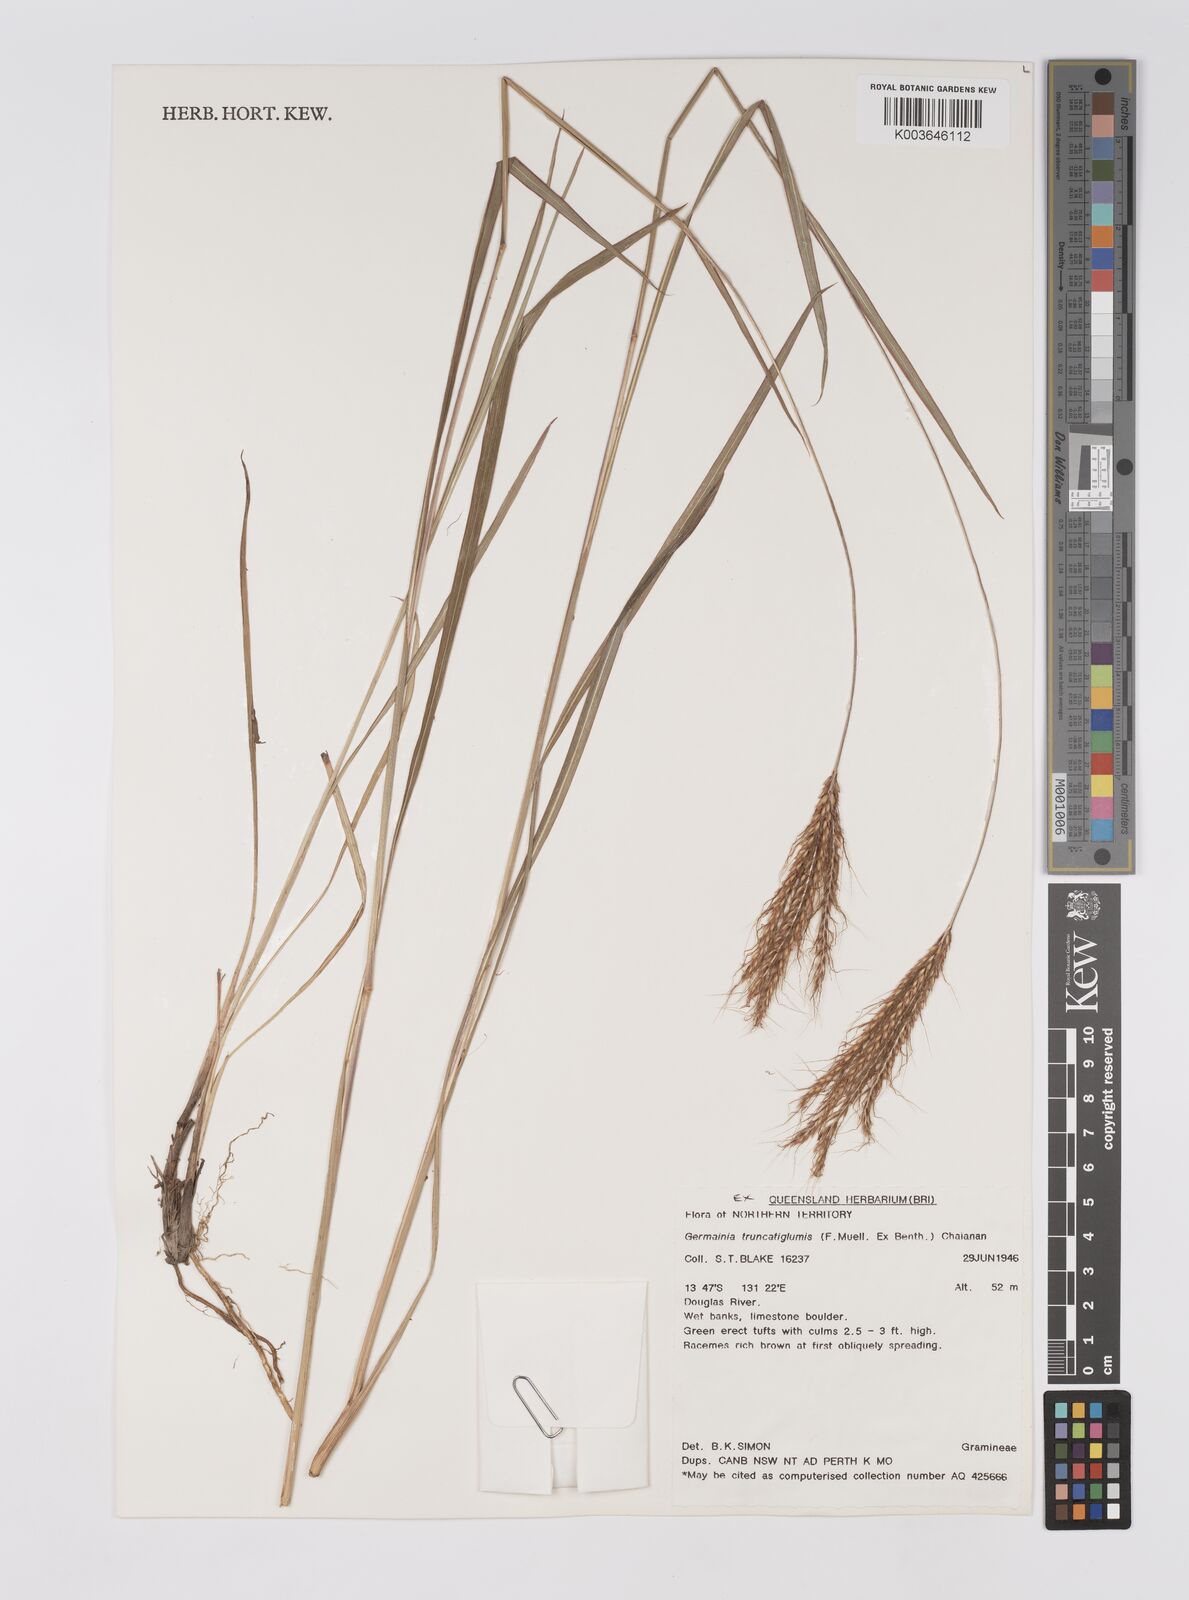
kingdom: Plantae
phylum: Tracheophyta
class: Liliopsida
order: Poales
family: Poaceae
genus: Germainia
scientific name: Germainia truncatiglumis
